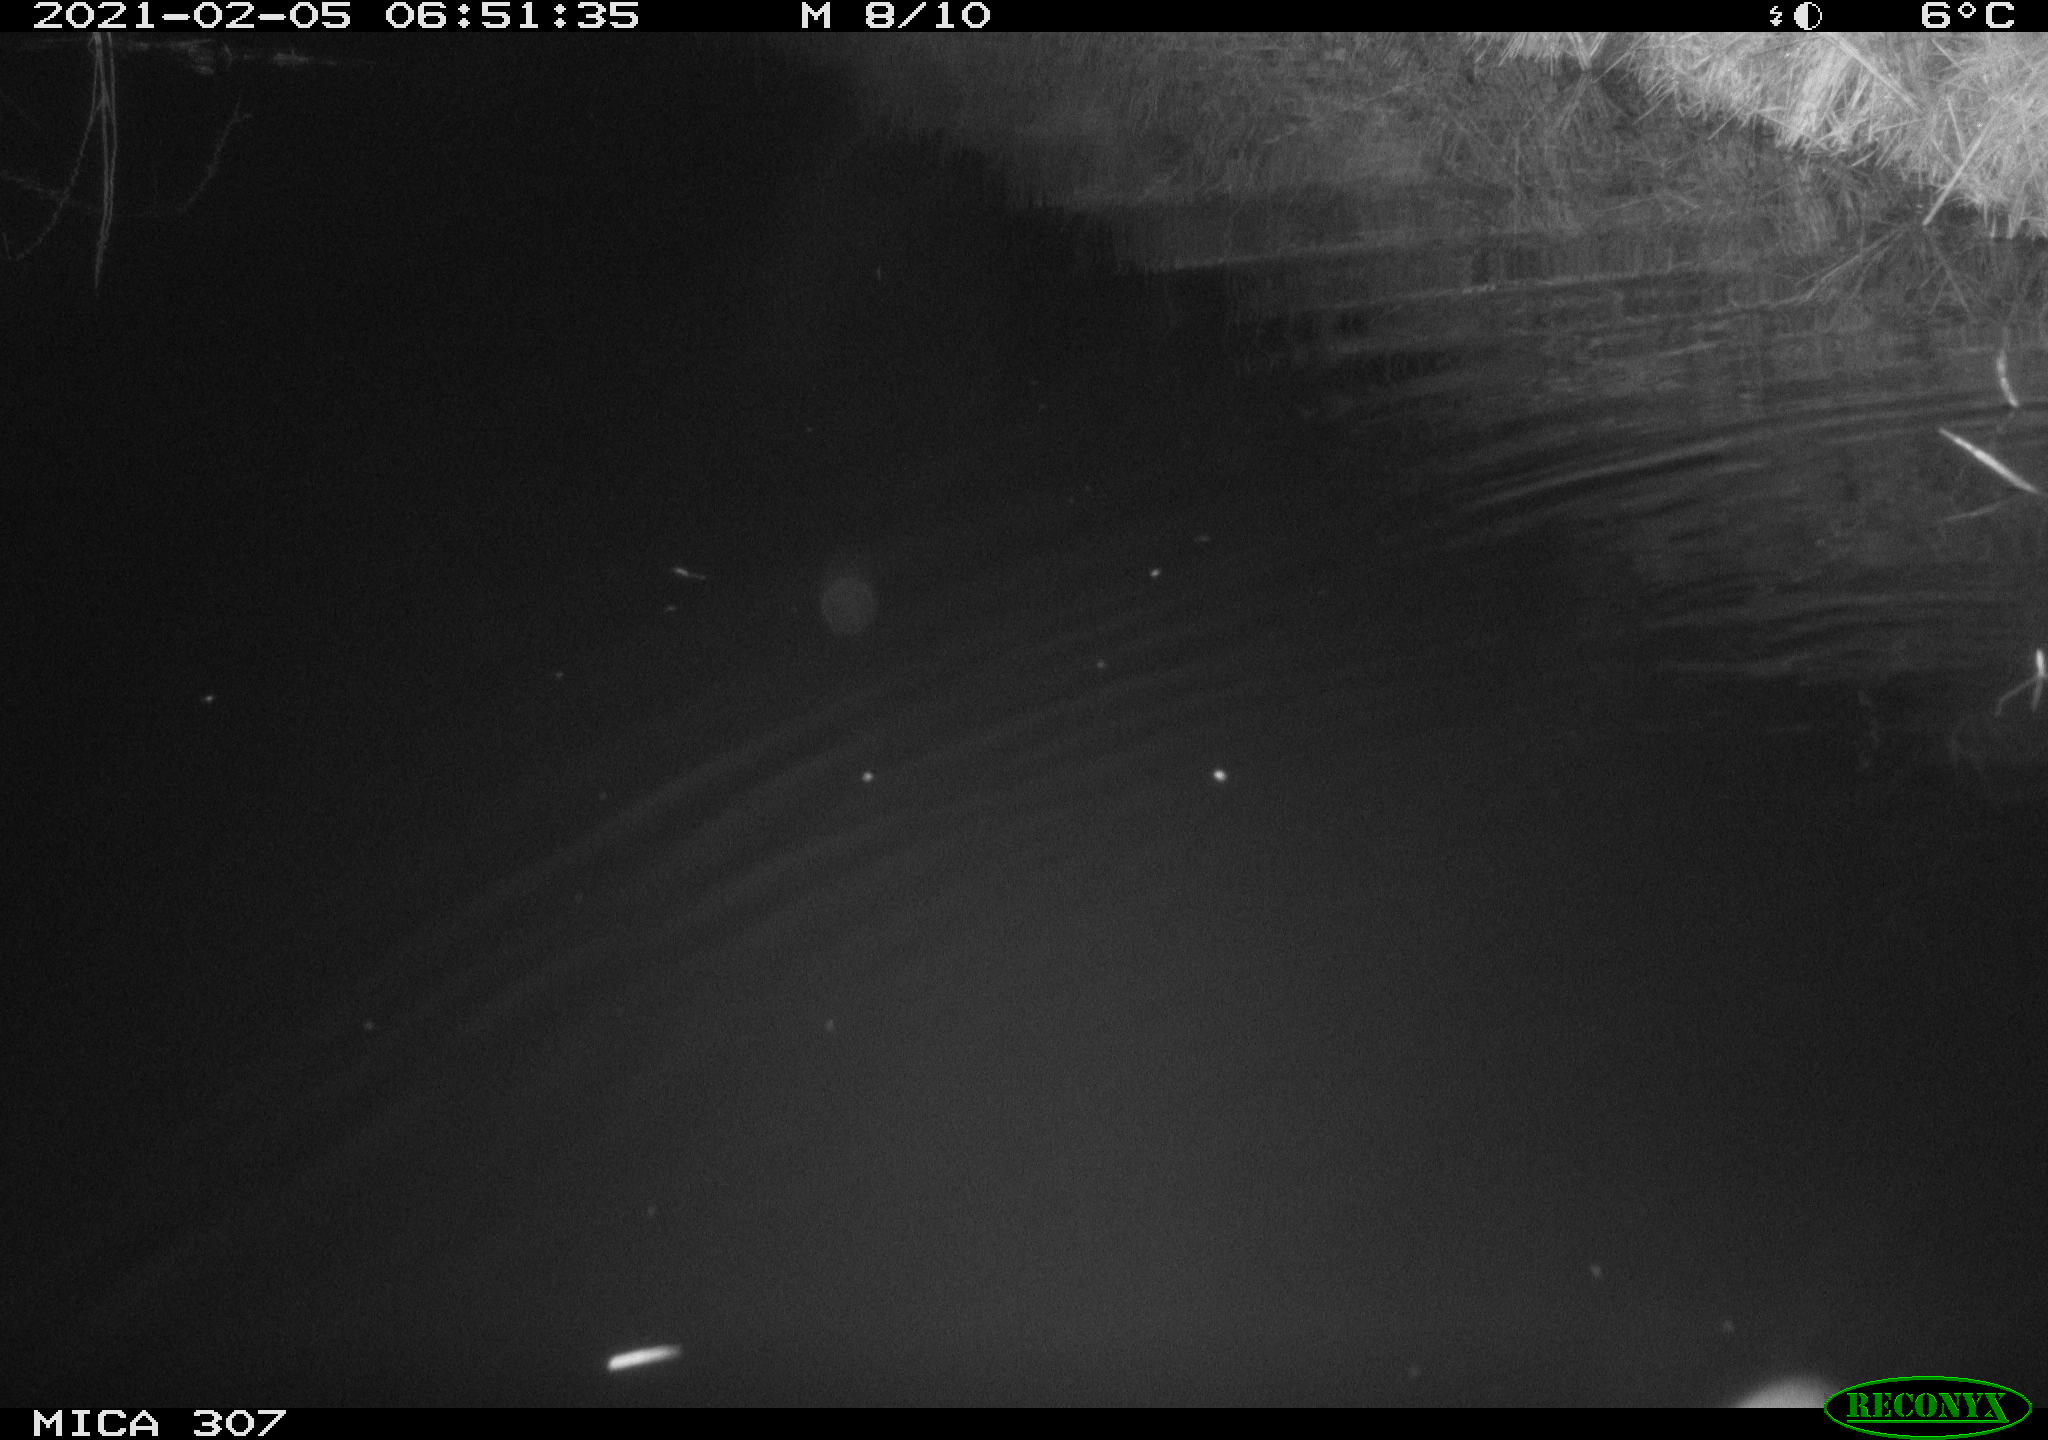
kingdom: Animalia
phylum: Chordata
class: Mammalia
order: Rodentia
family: Muridae
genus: Rattus
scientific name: Rattus norvegicus
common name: Brown rat
